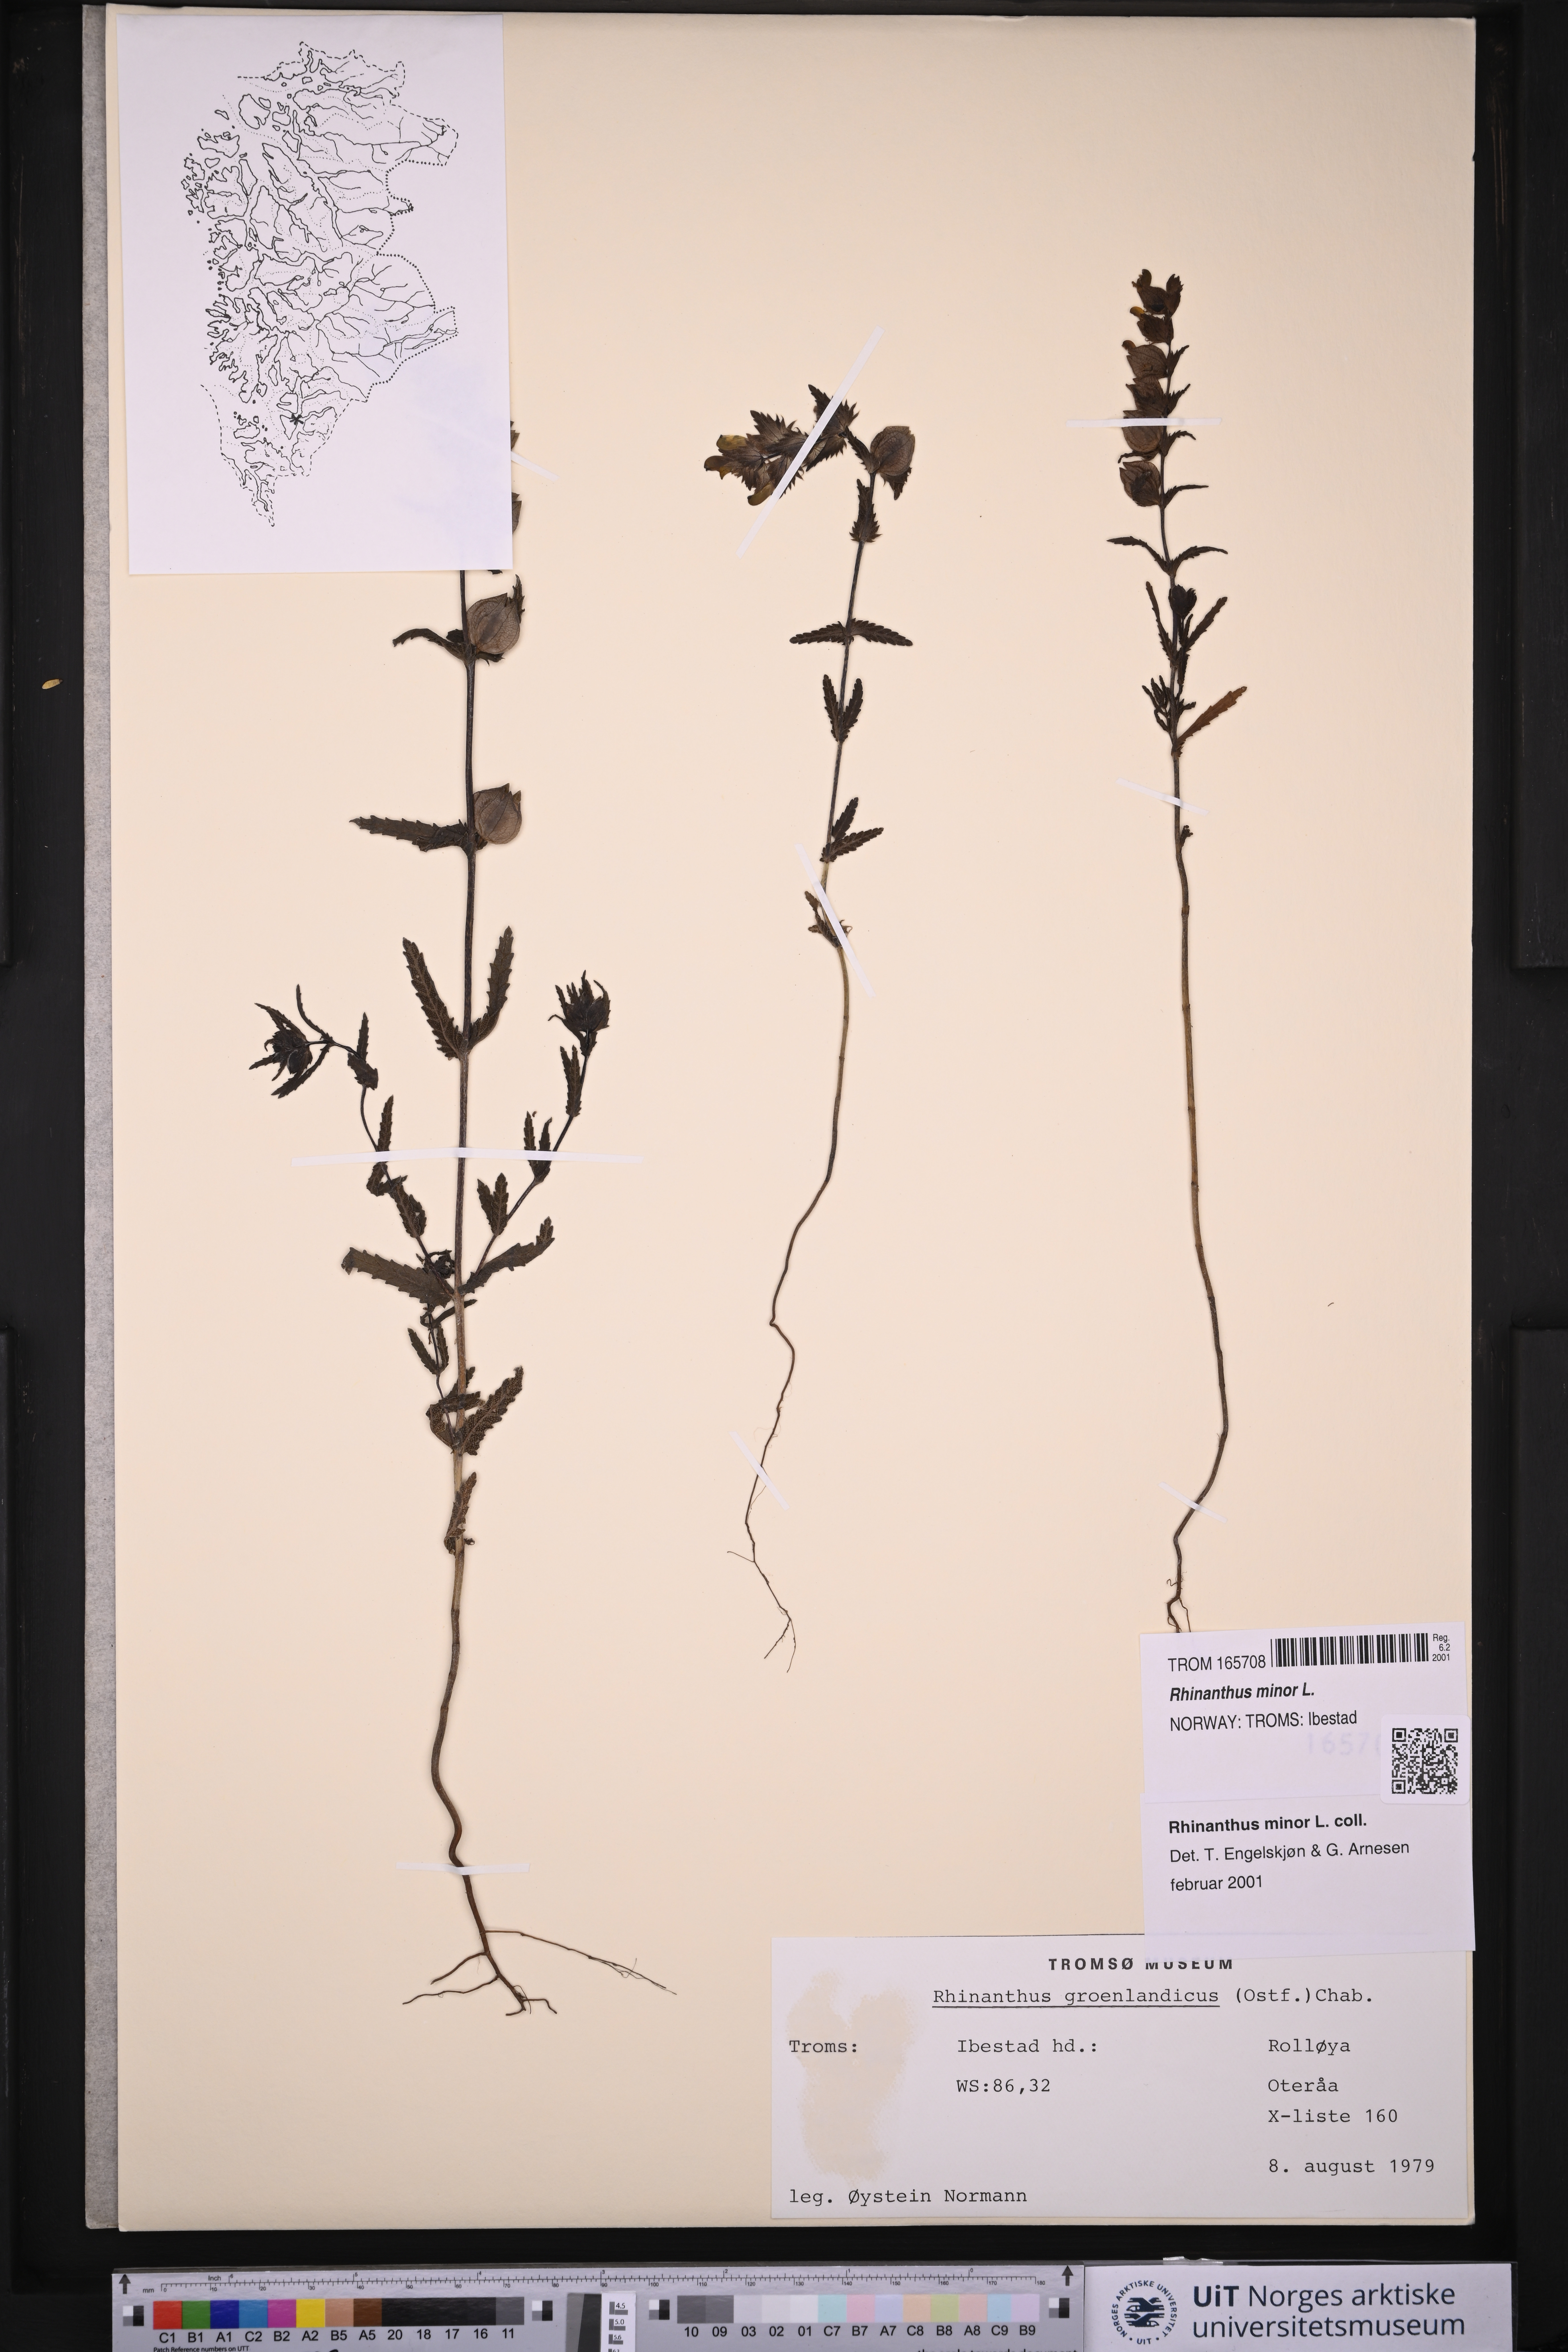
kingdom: Plantae
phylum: Tracheophyta
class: Magnoliopsida
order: Lamiales
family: Orobanchaceae
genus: Rhinanthus
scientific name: Rhinanthus minor
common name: Yellow-rattle
